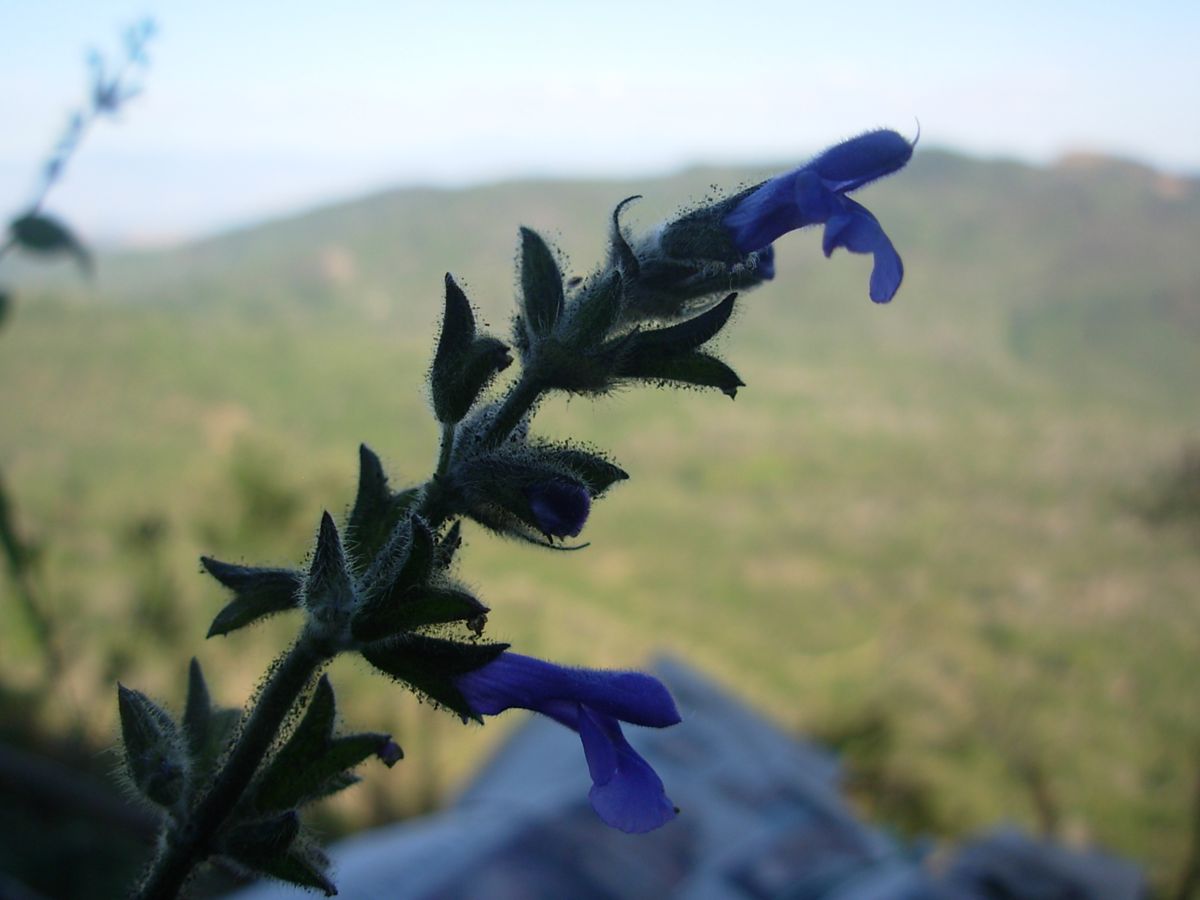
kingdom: Plantae
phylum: Tracheophyta
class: Magnoliopsida
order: Lamiales
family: Lamiaceae
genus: Salvia
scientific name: Salvia urica
